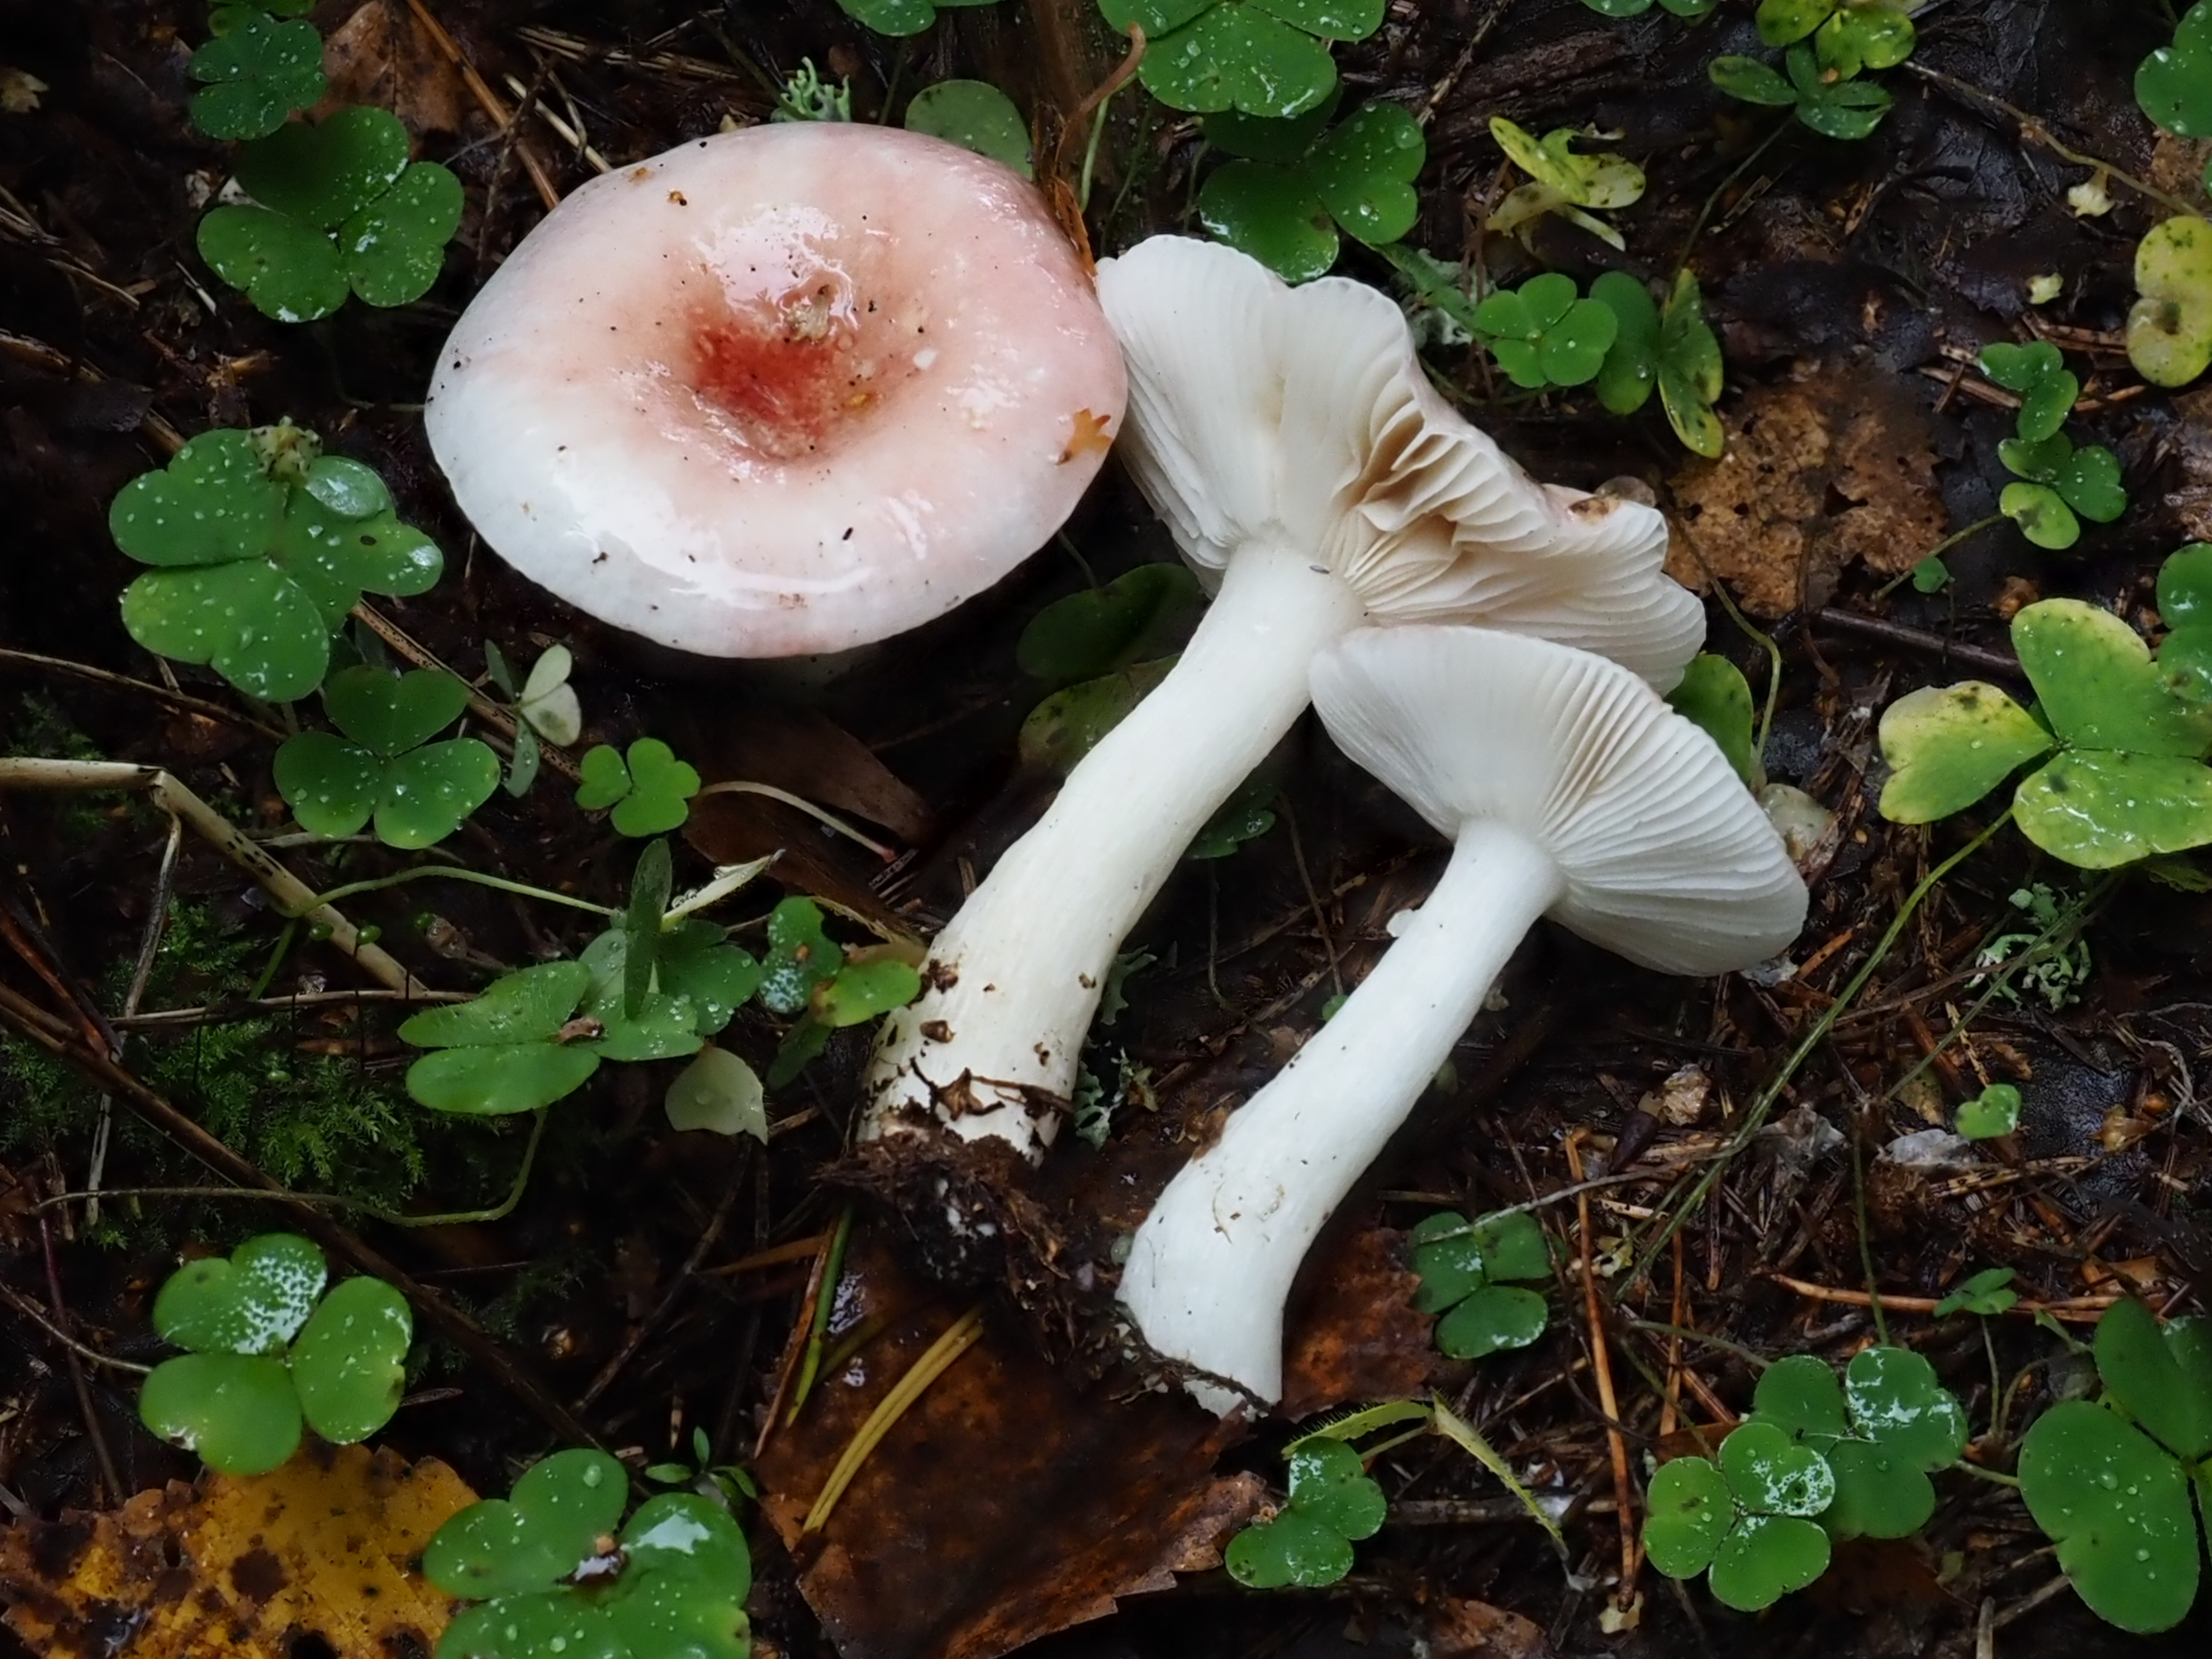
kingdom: Fungi
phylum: Basidiomycota
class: Agaricomycetes
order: Russulales
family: Russulaceae
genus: Russula
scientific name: Russula betularum
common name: Birch brittlegill
